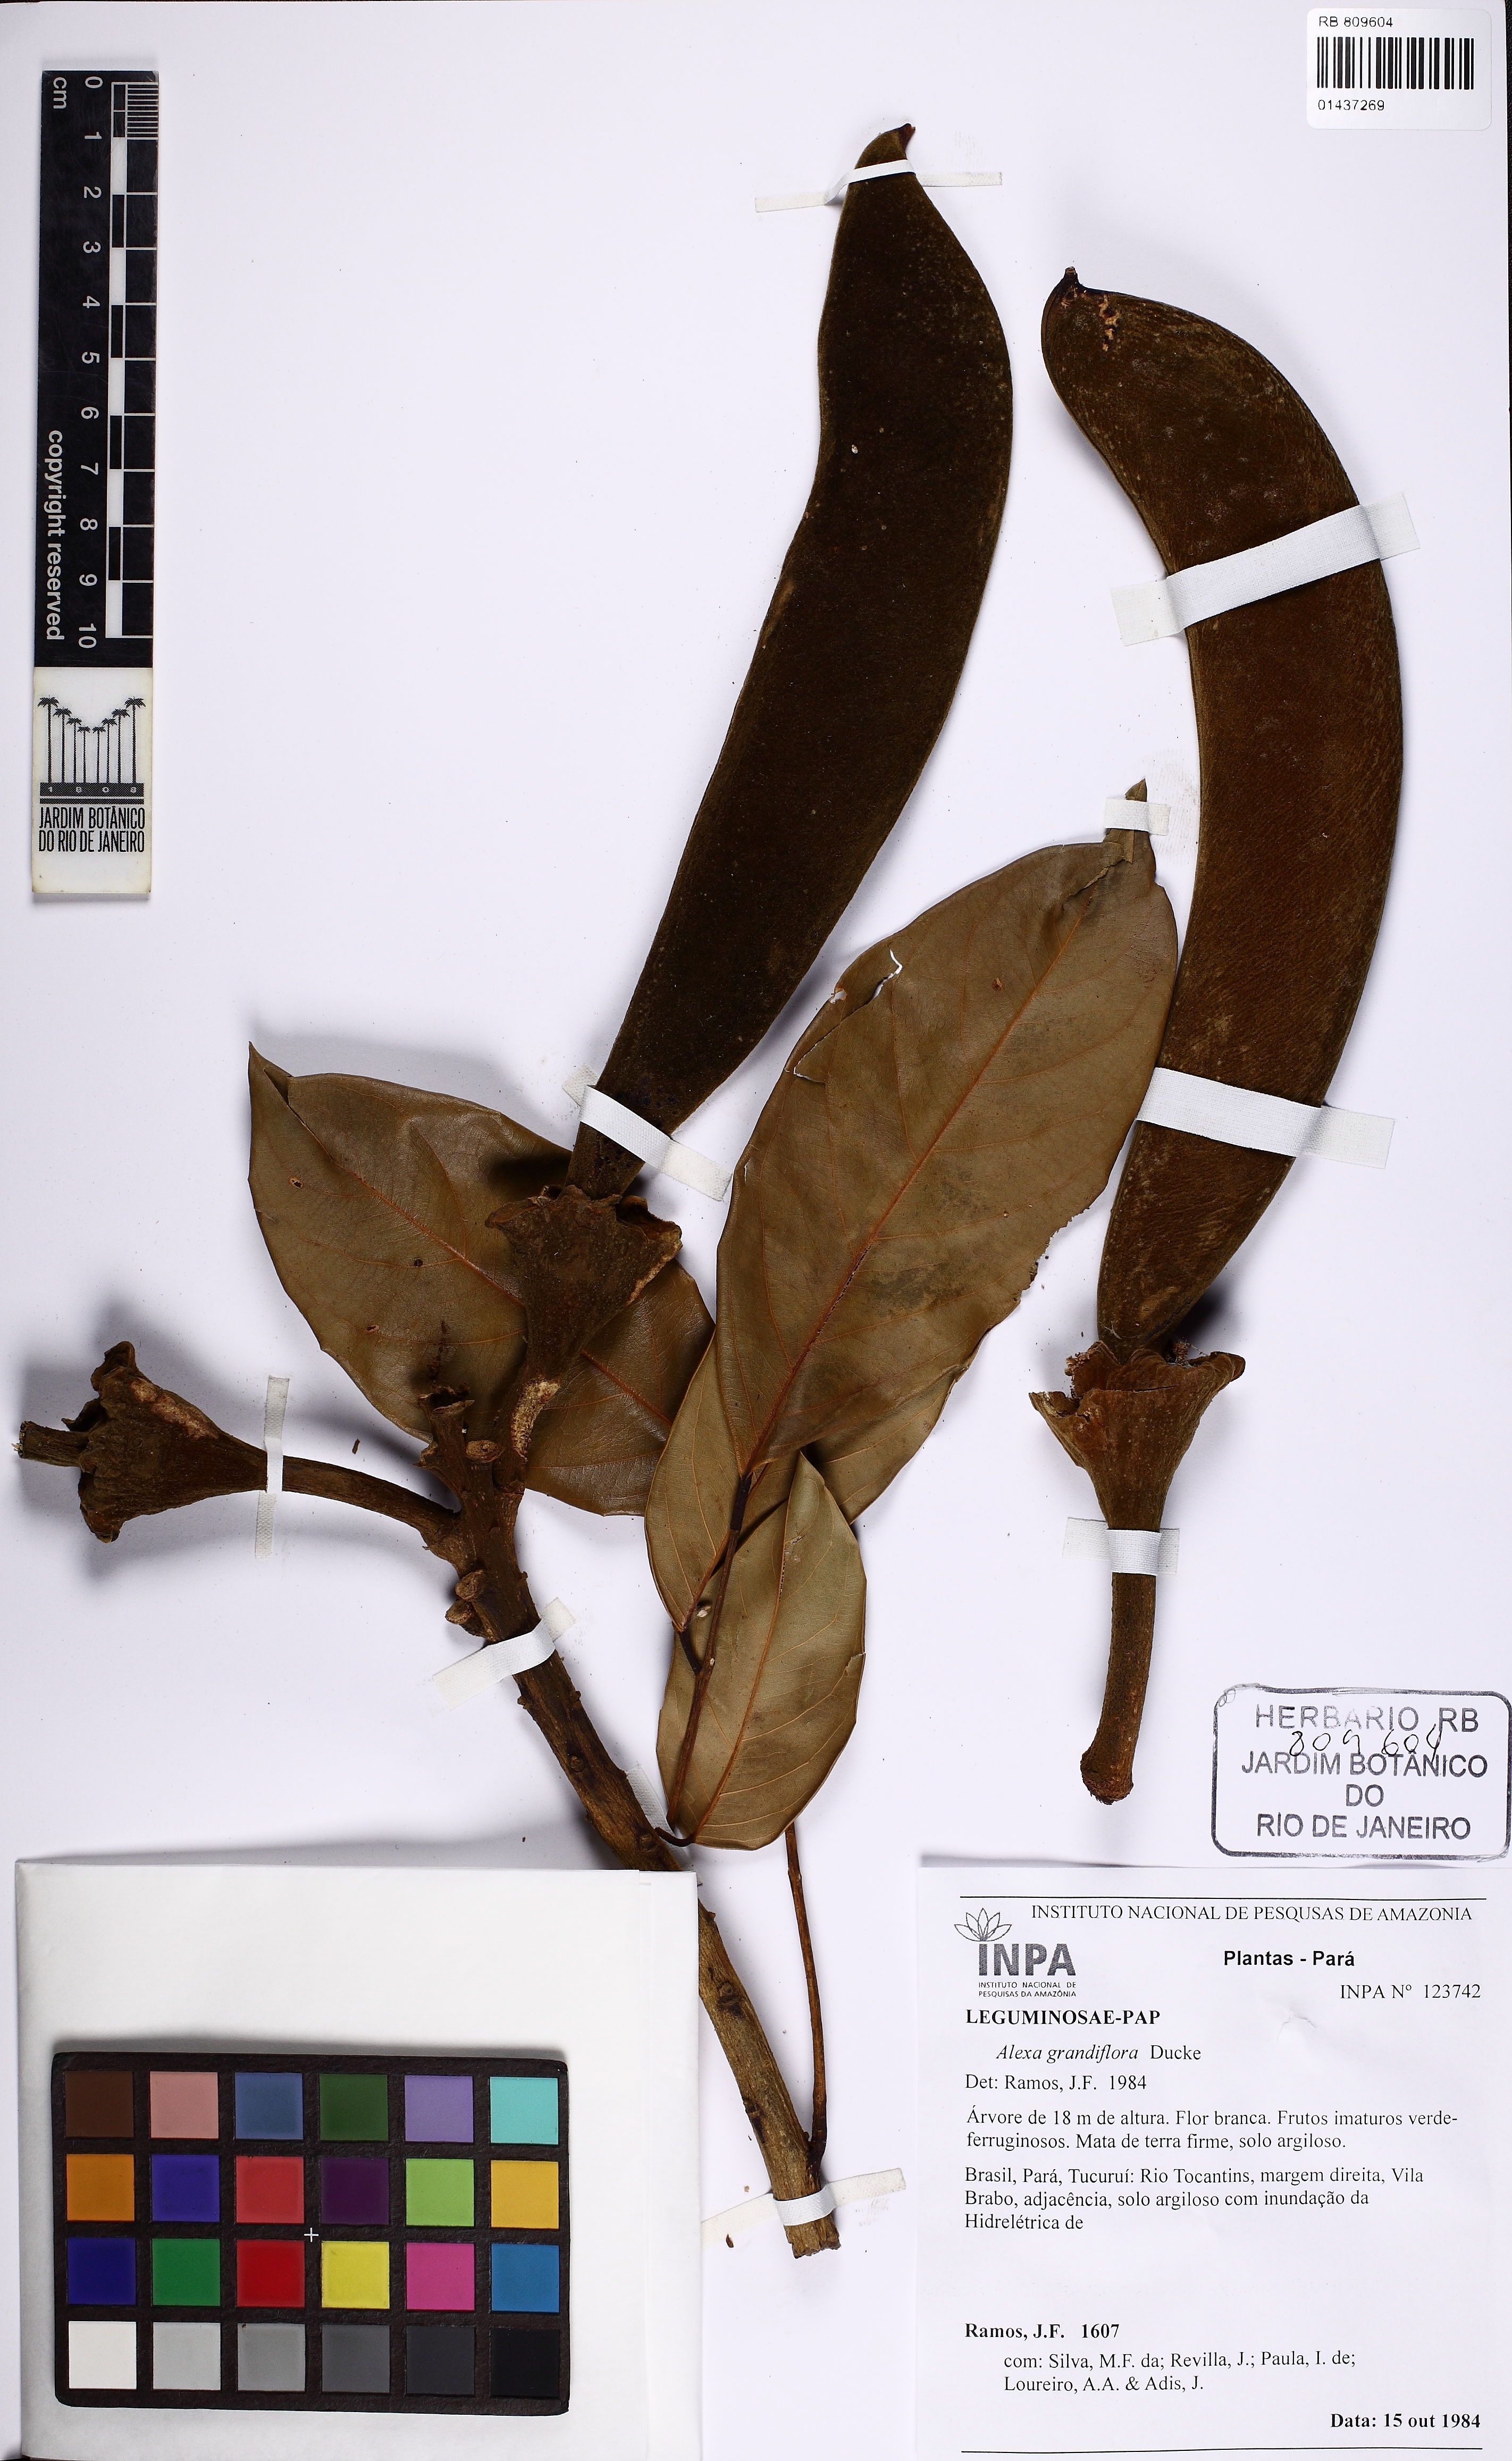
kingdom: Plantae
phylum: Tracheophyta
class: Magnoliopsida
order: Fabales
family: Fabaceae
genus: Alexa
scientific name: Alexa grandiflora
